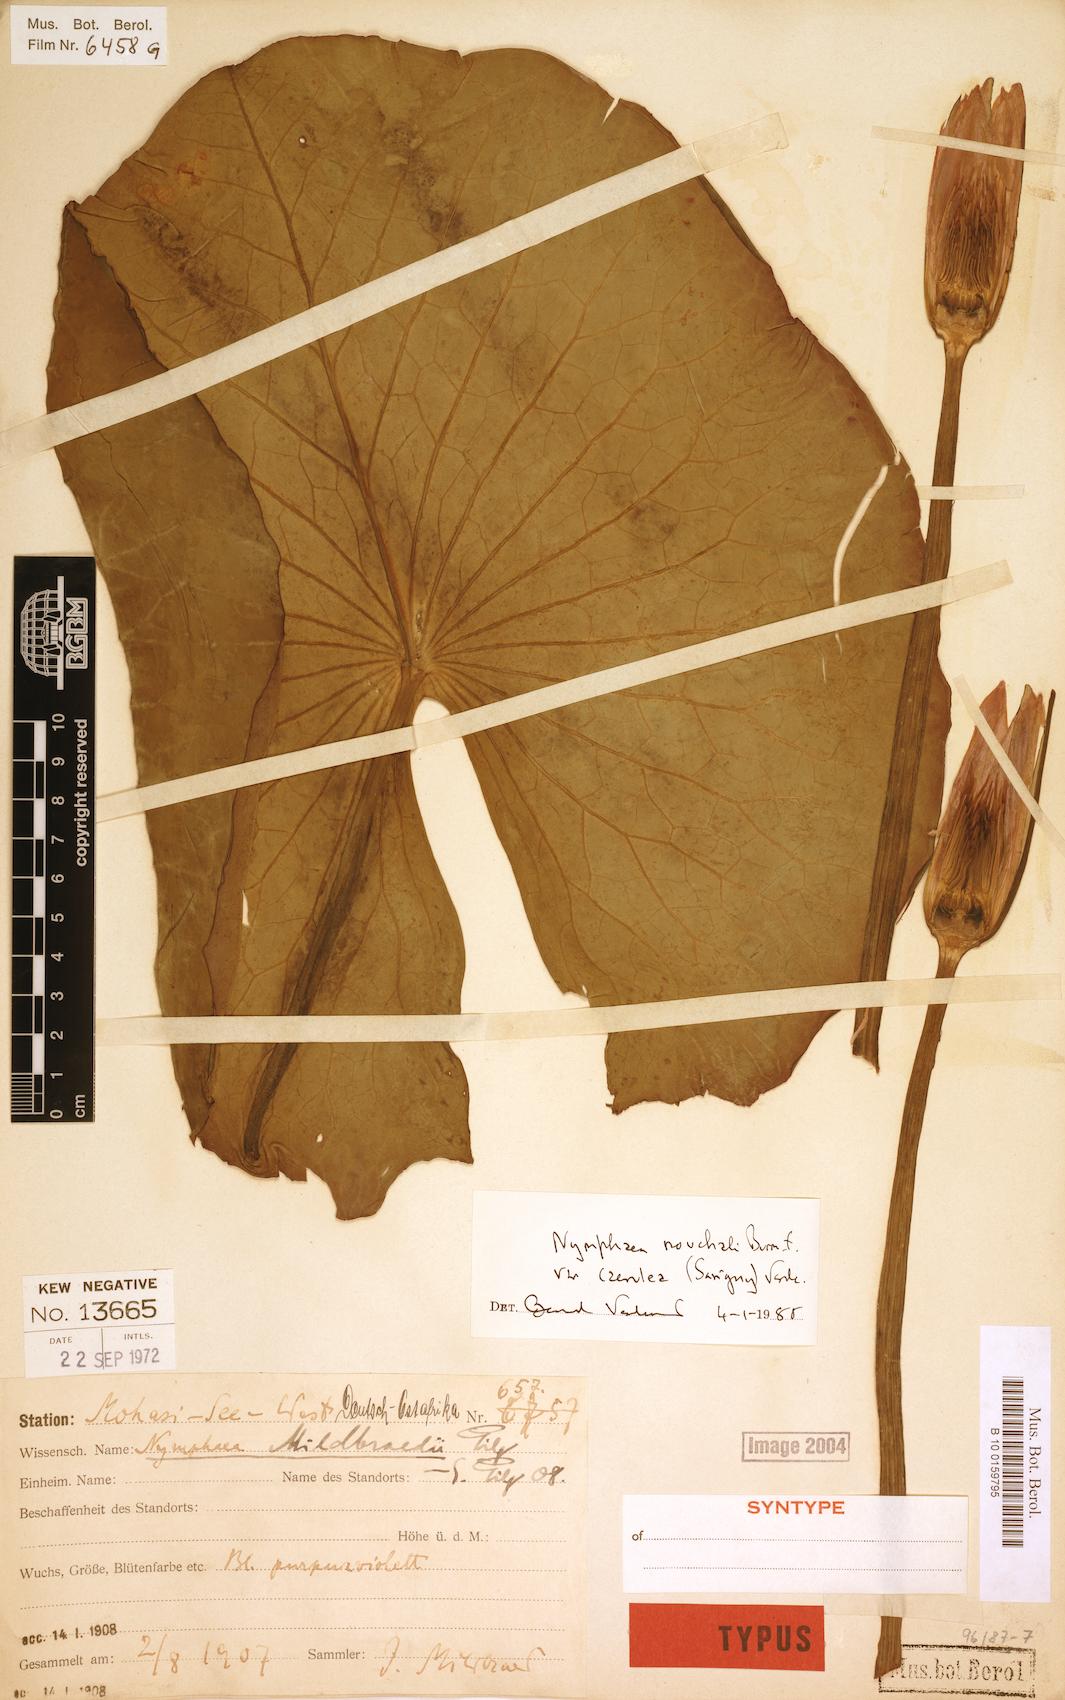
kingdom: Plantae
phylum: Tracheophyta
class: Magnoliopsida
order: Nymphaeales
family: Nymphaeaceae
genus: Nymphaea
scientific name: Nymphaea nouchali
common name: Blue lotus
